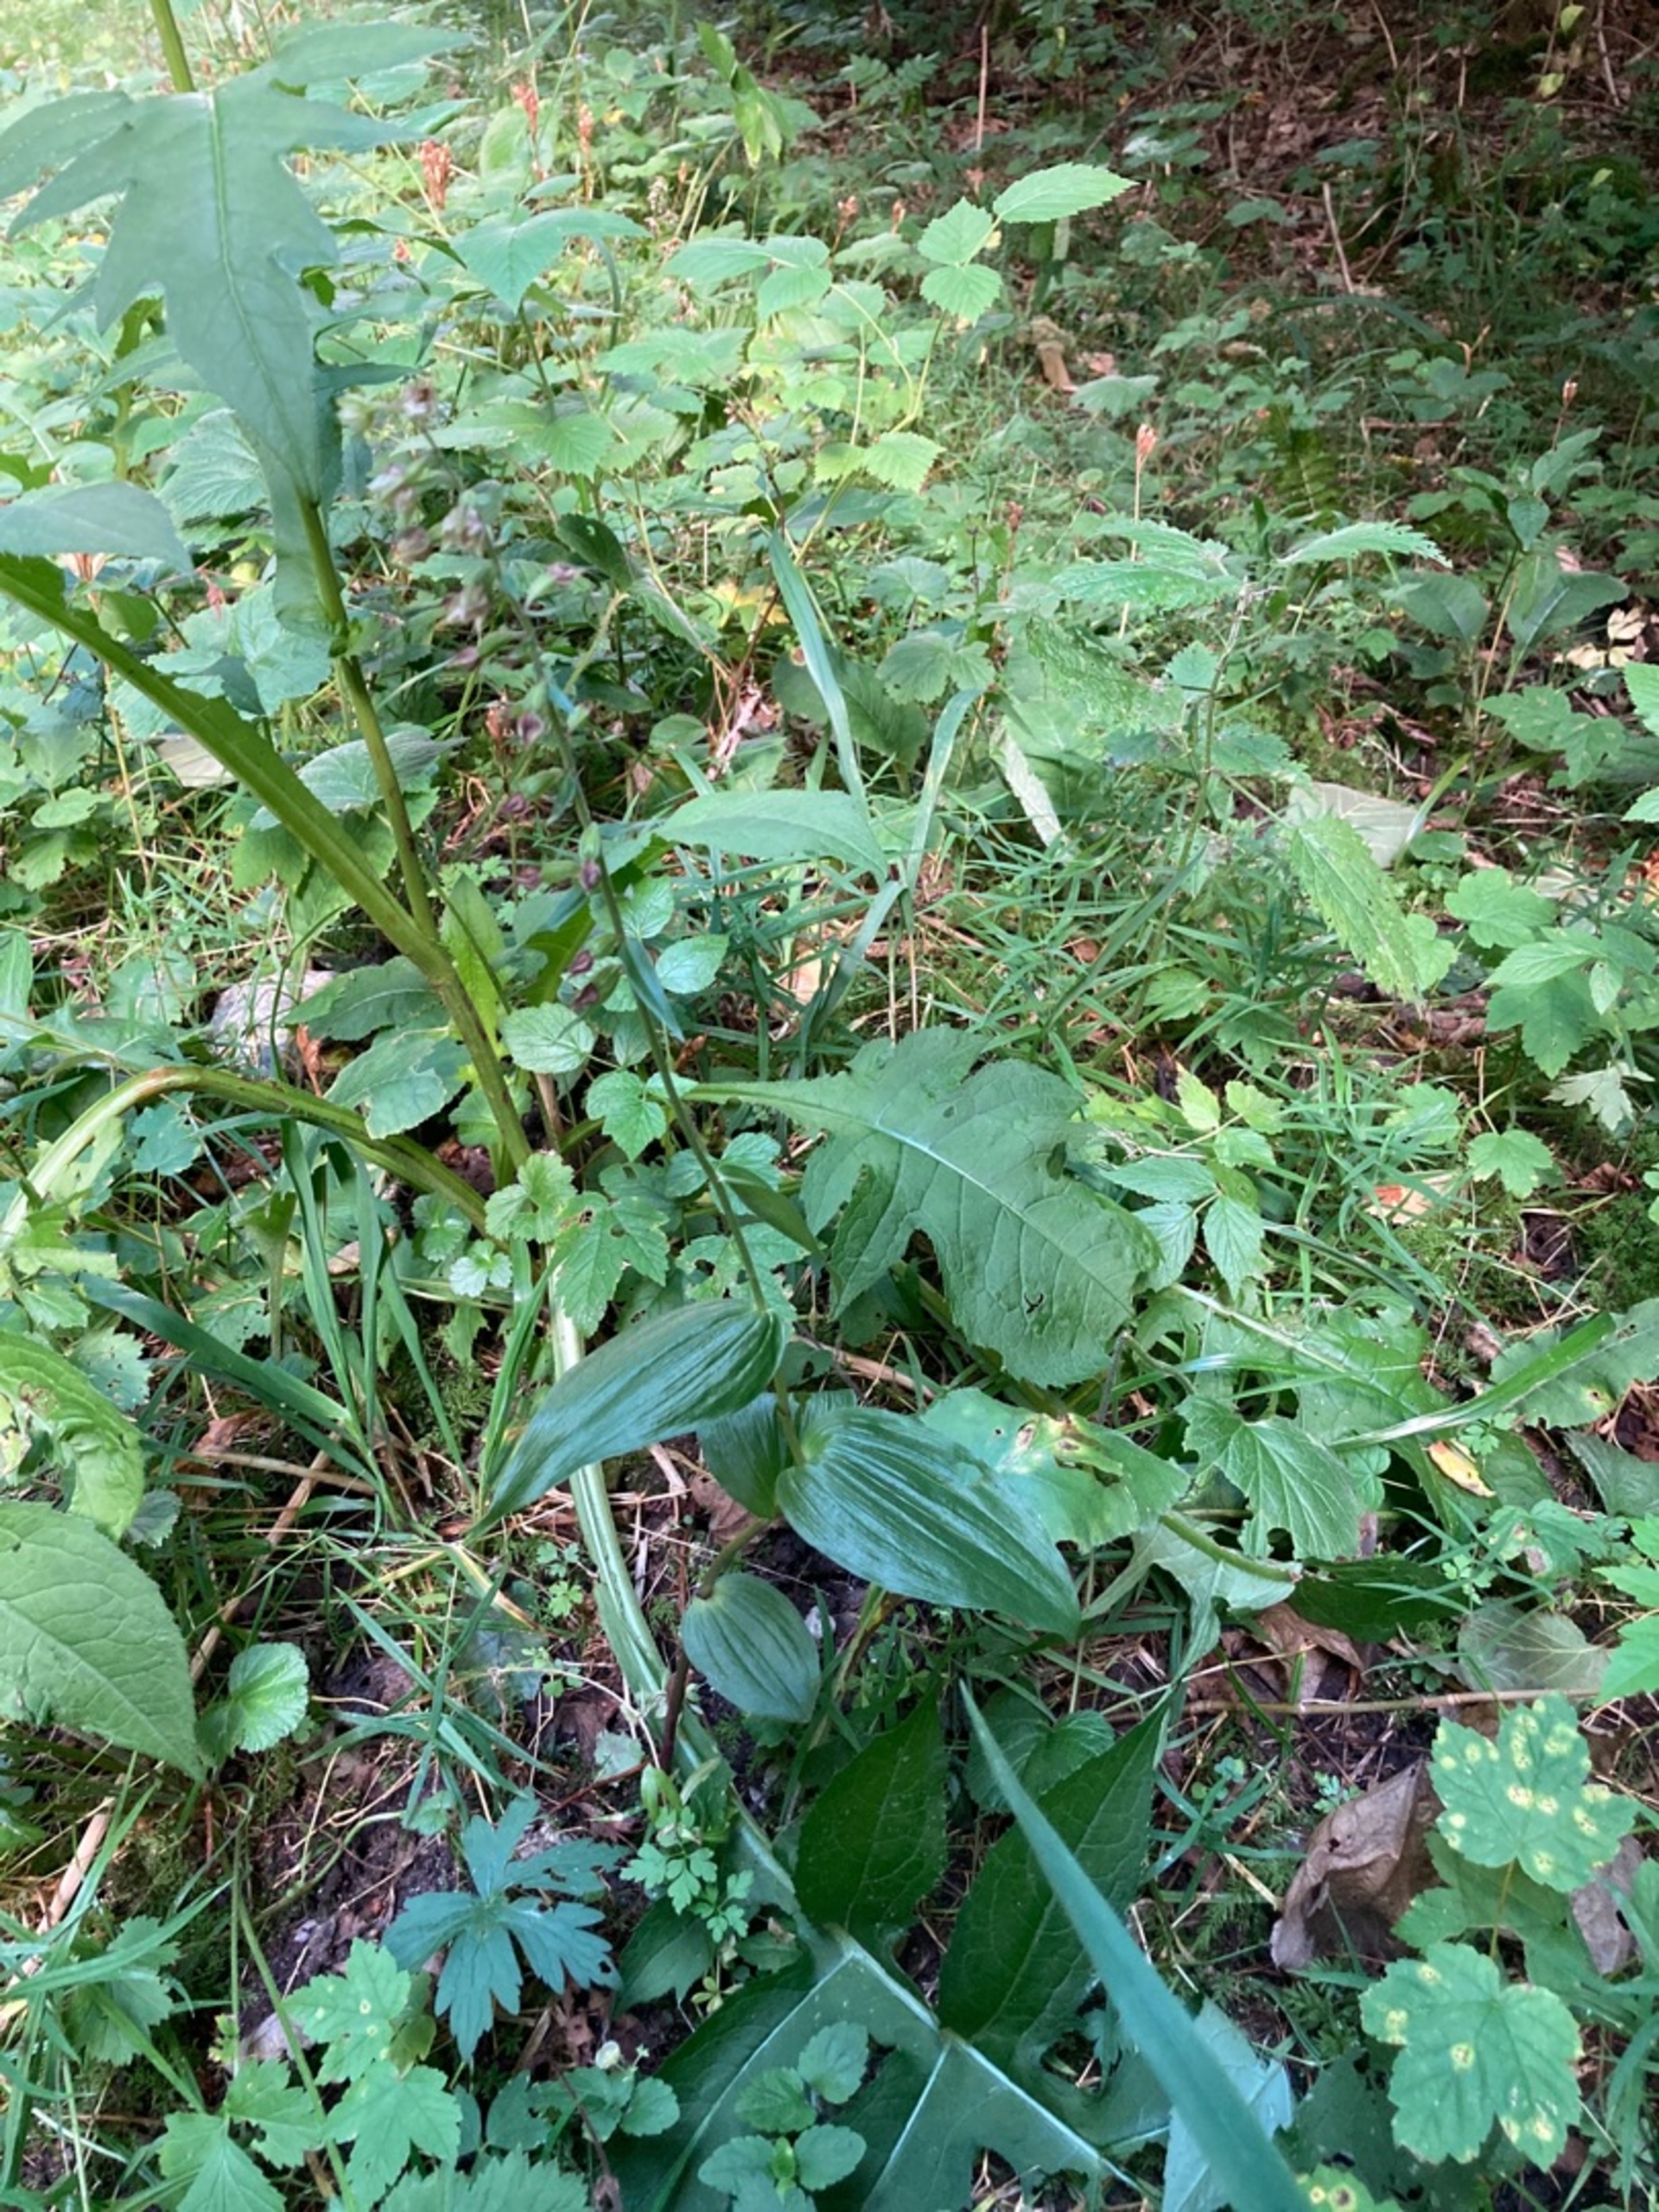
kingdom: Plantae
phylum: Tracheophyta
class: Liliopsida
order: Asparagales
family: Orchidaceae
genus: Epipactis
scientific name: Epipactis helleborine
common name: Skov-hullæbe
